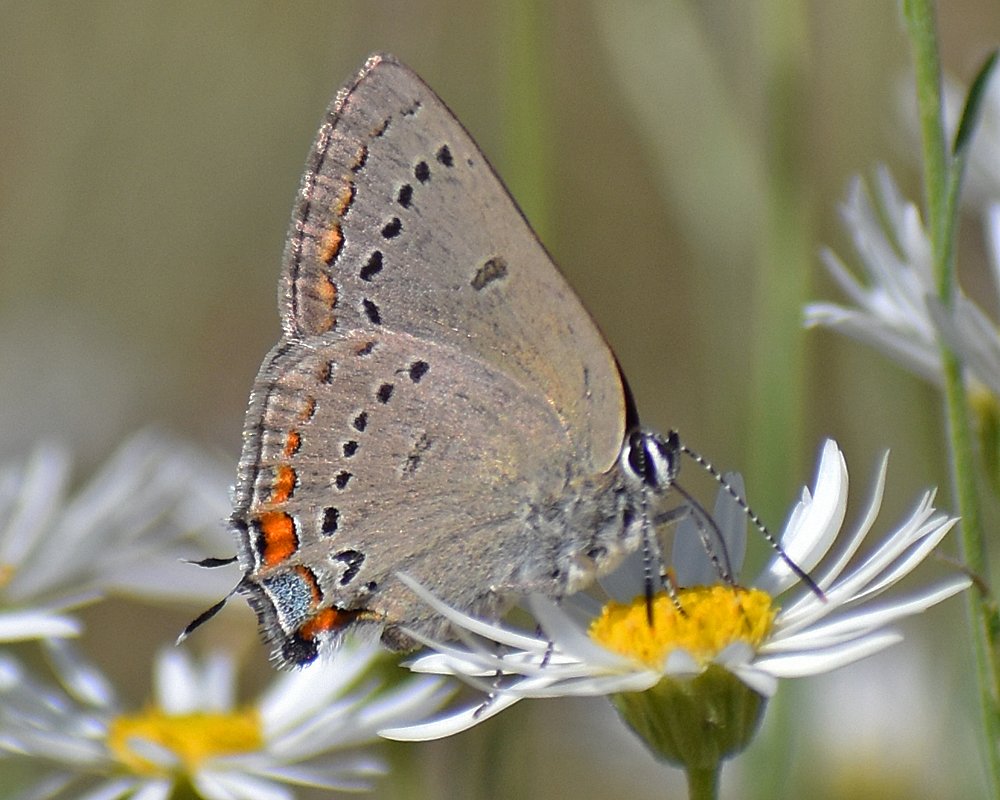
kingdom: Animalia
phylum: Arthropoda
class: Insecta
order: Lepidoptera
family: Lycaenidae
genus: Strymon
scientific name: Strymon acadica
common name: California Hairstreak
